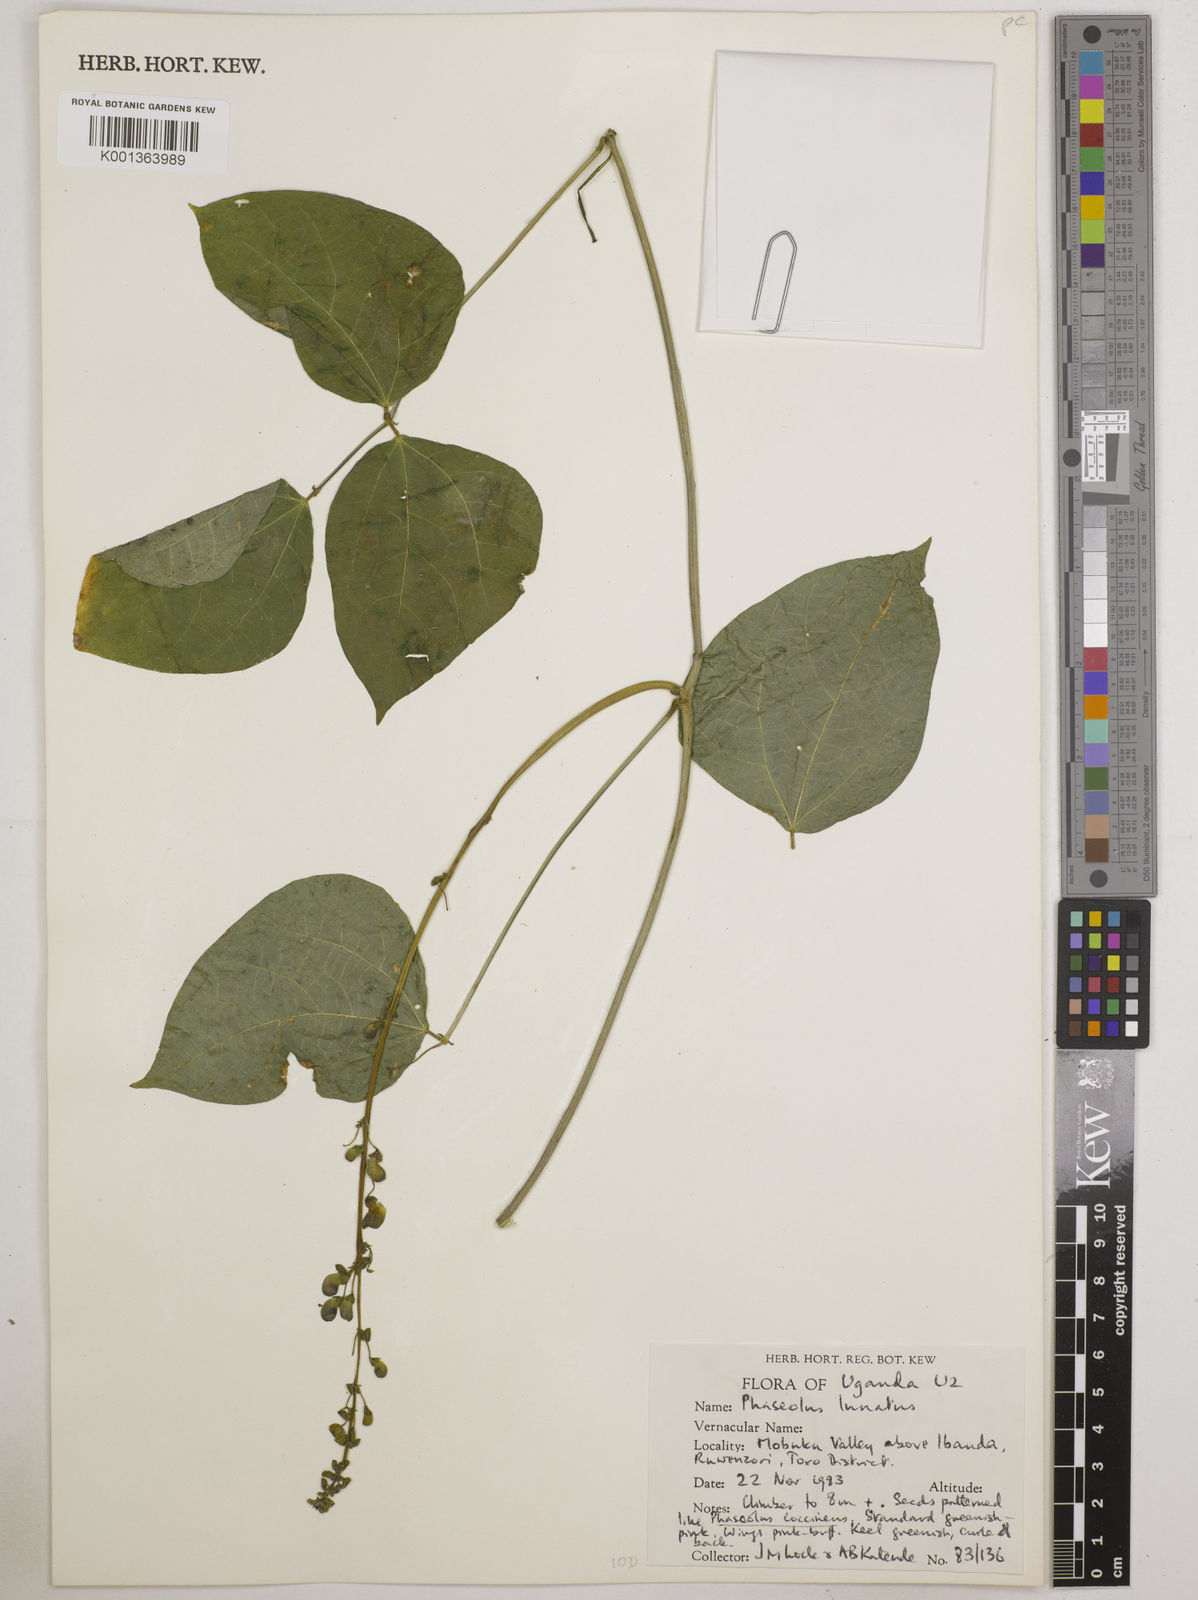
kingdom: Plantae
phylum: Tracheophyta
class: Magnoliopsida
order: Fabales
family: Fabaceae
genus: Phaseolus
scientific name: Phaseolus lunatus
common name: Sieva bean
